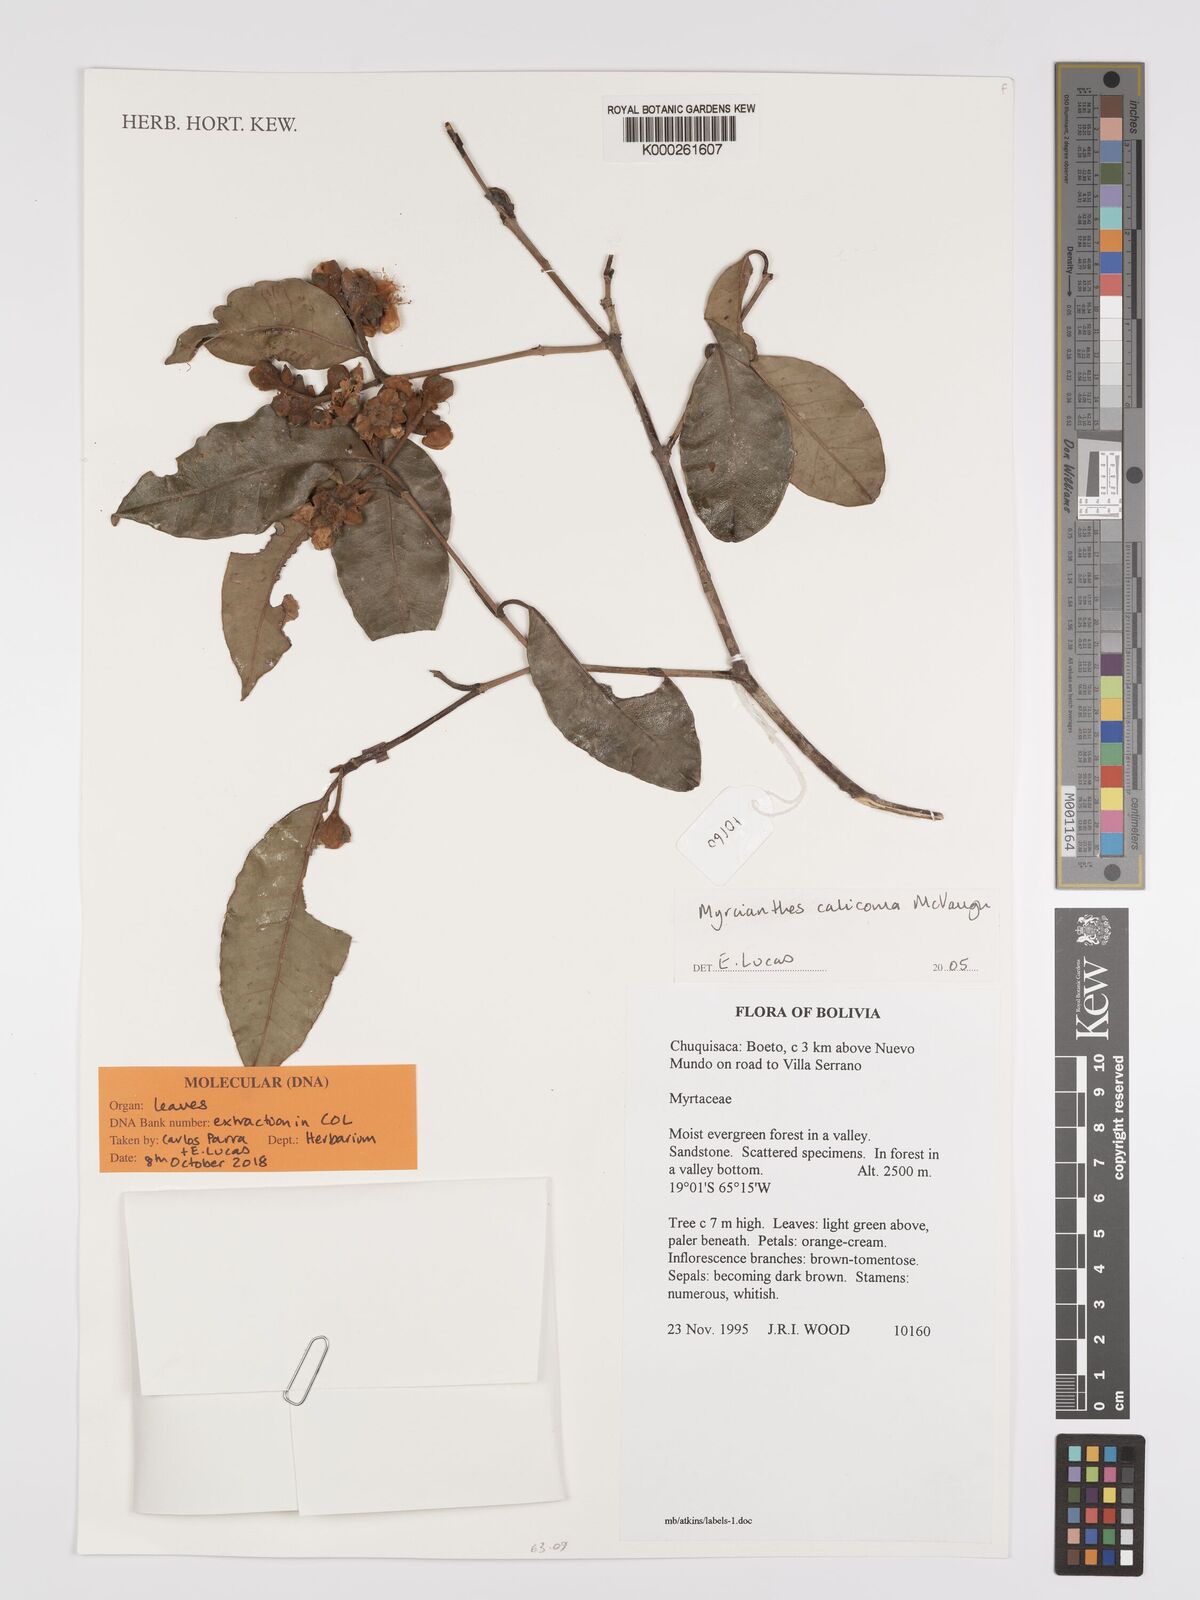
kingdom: Plantae
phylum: Tracheophyta
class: Magnoliopsida
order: Myrtales
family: Myrtaceae
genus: Myrcianthes
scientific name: Myrcianthes callicoma
